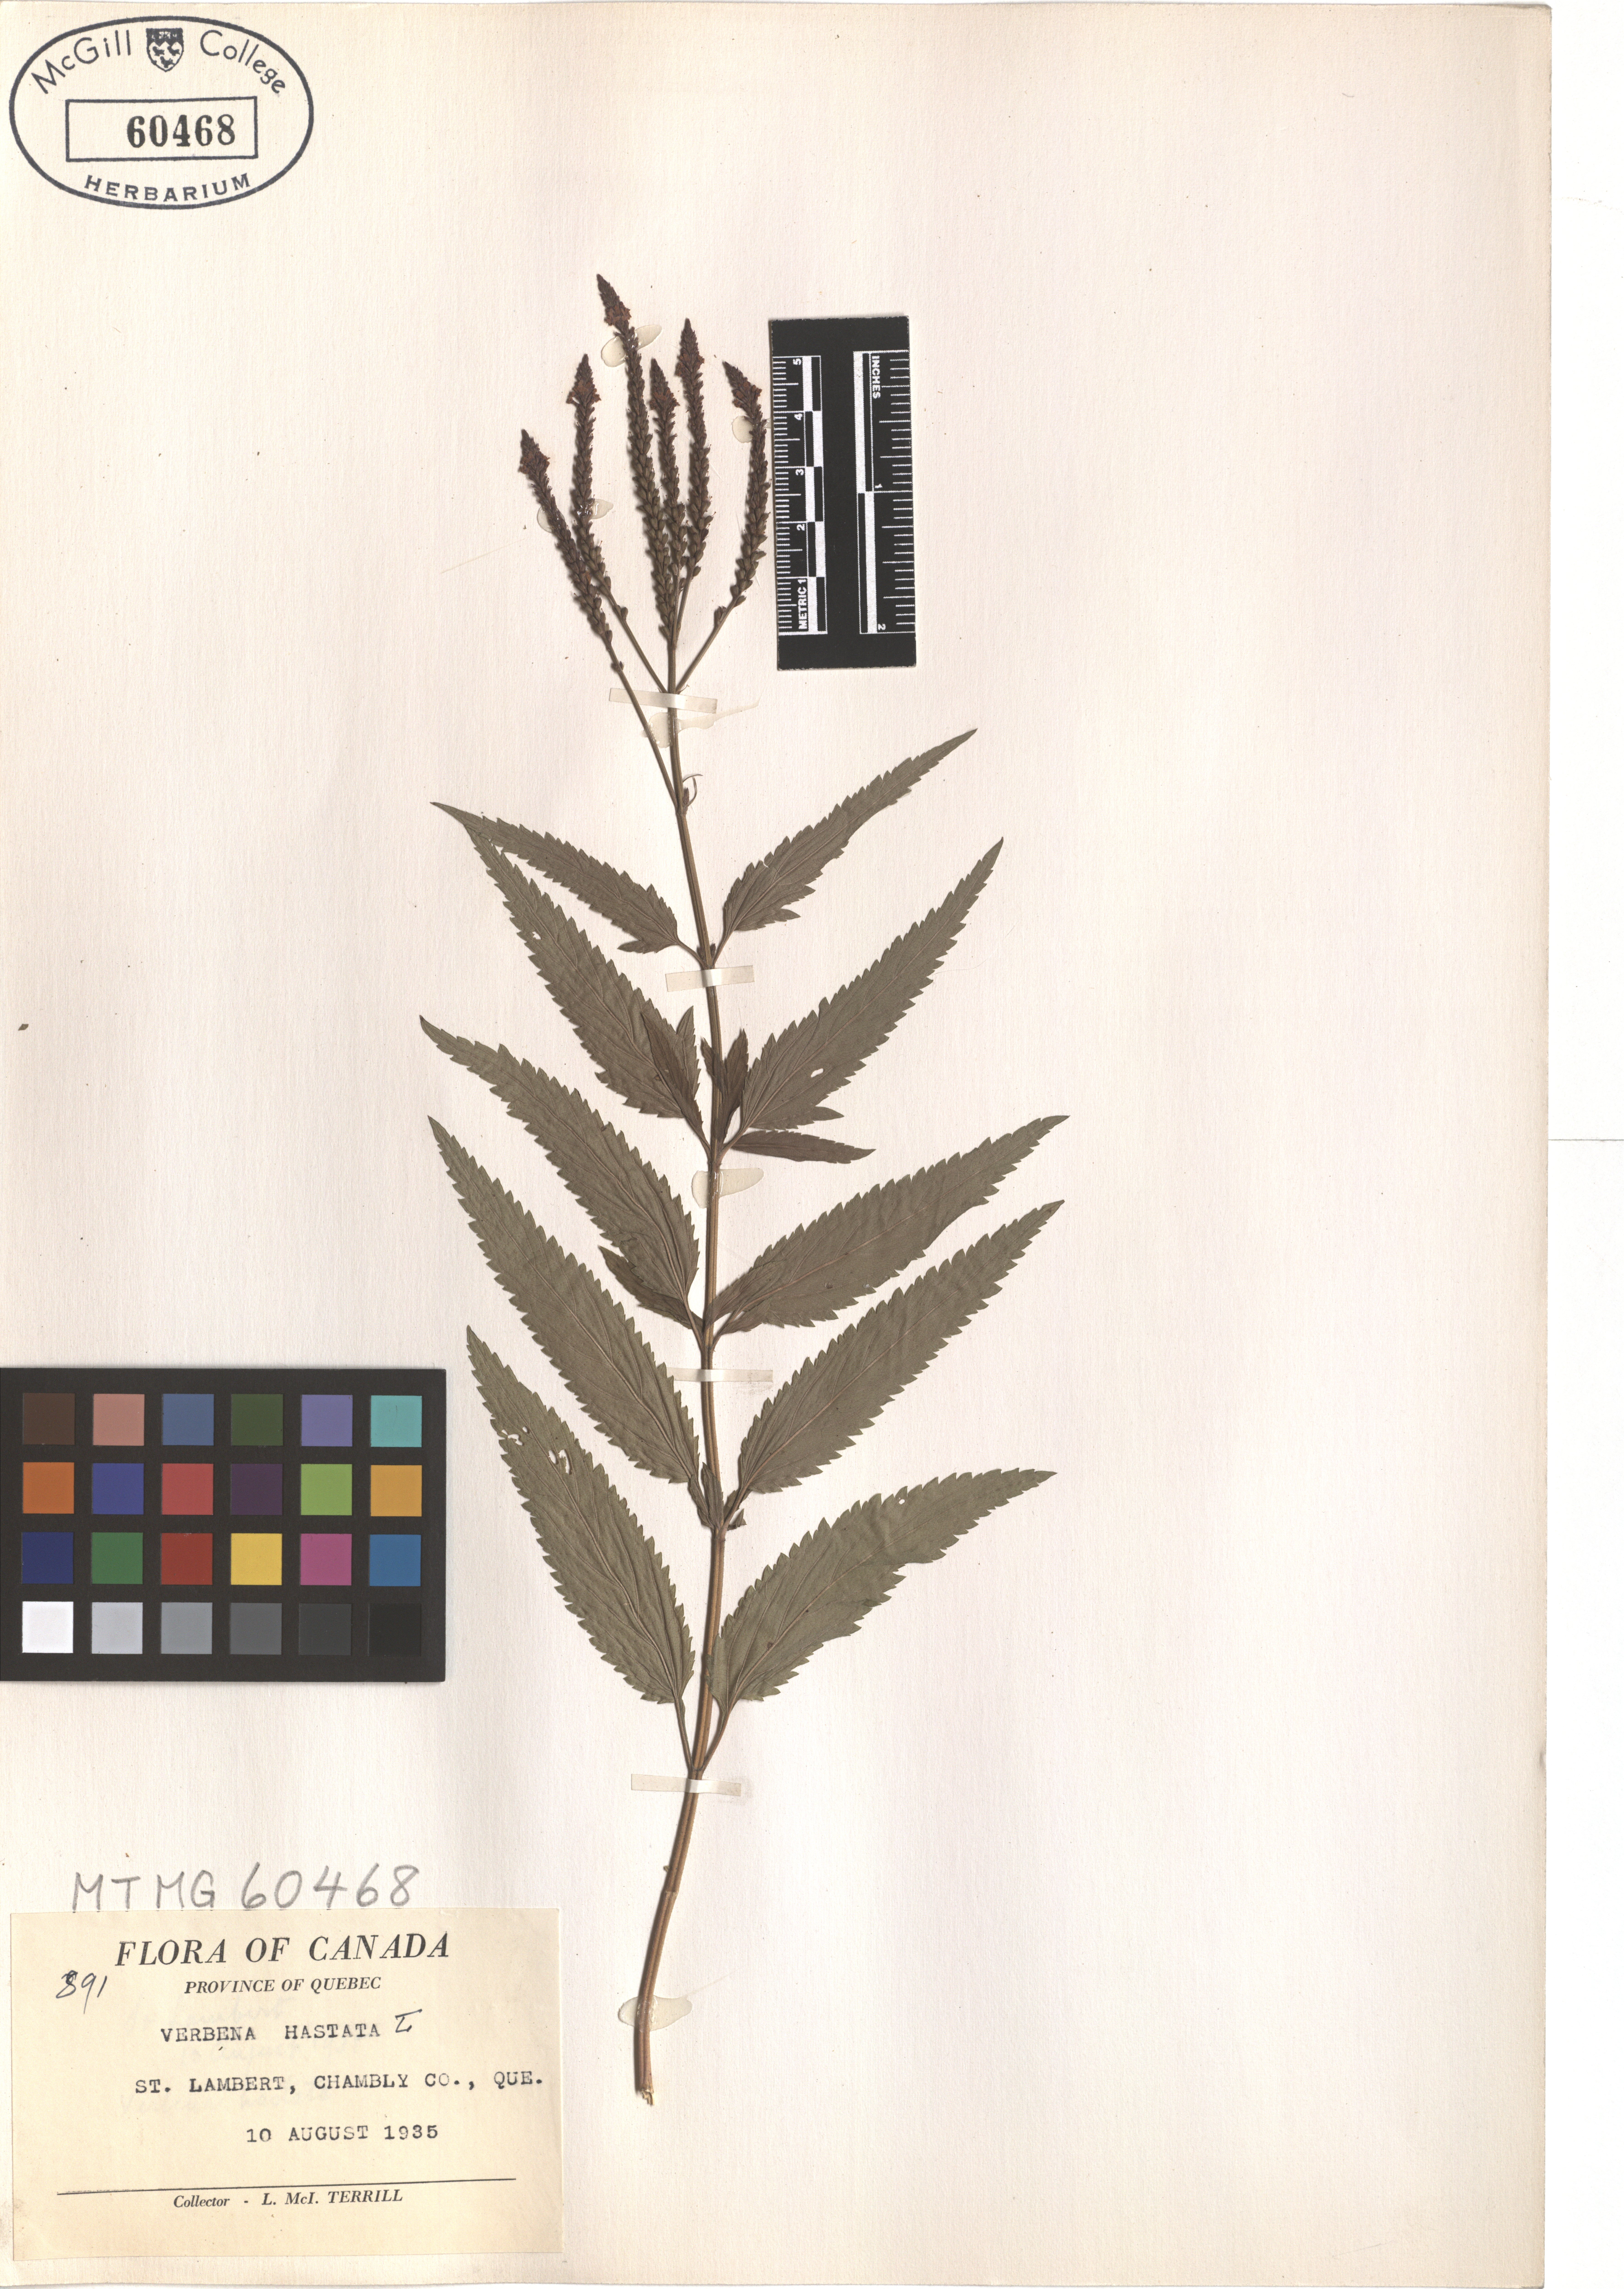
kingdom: Plantae
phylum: Tracheophyta
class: Magnoliopsida
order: Lamiales
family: Verbenaceae
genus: Verbena
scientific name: Verbena hastata
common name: American blue vervain
